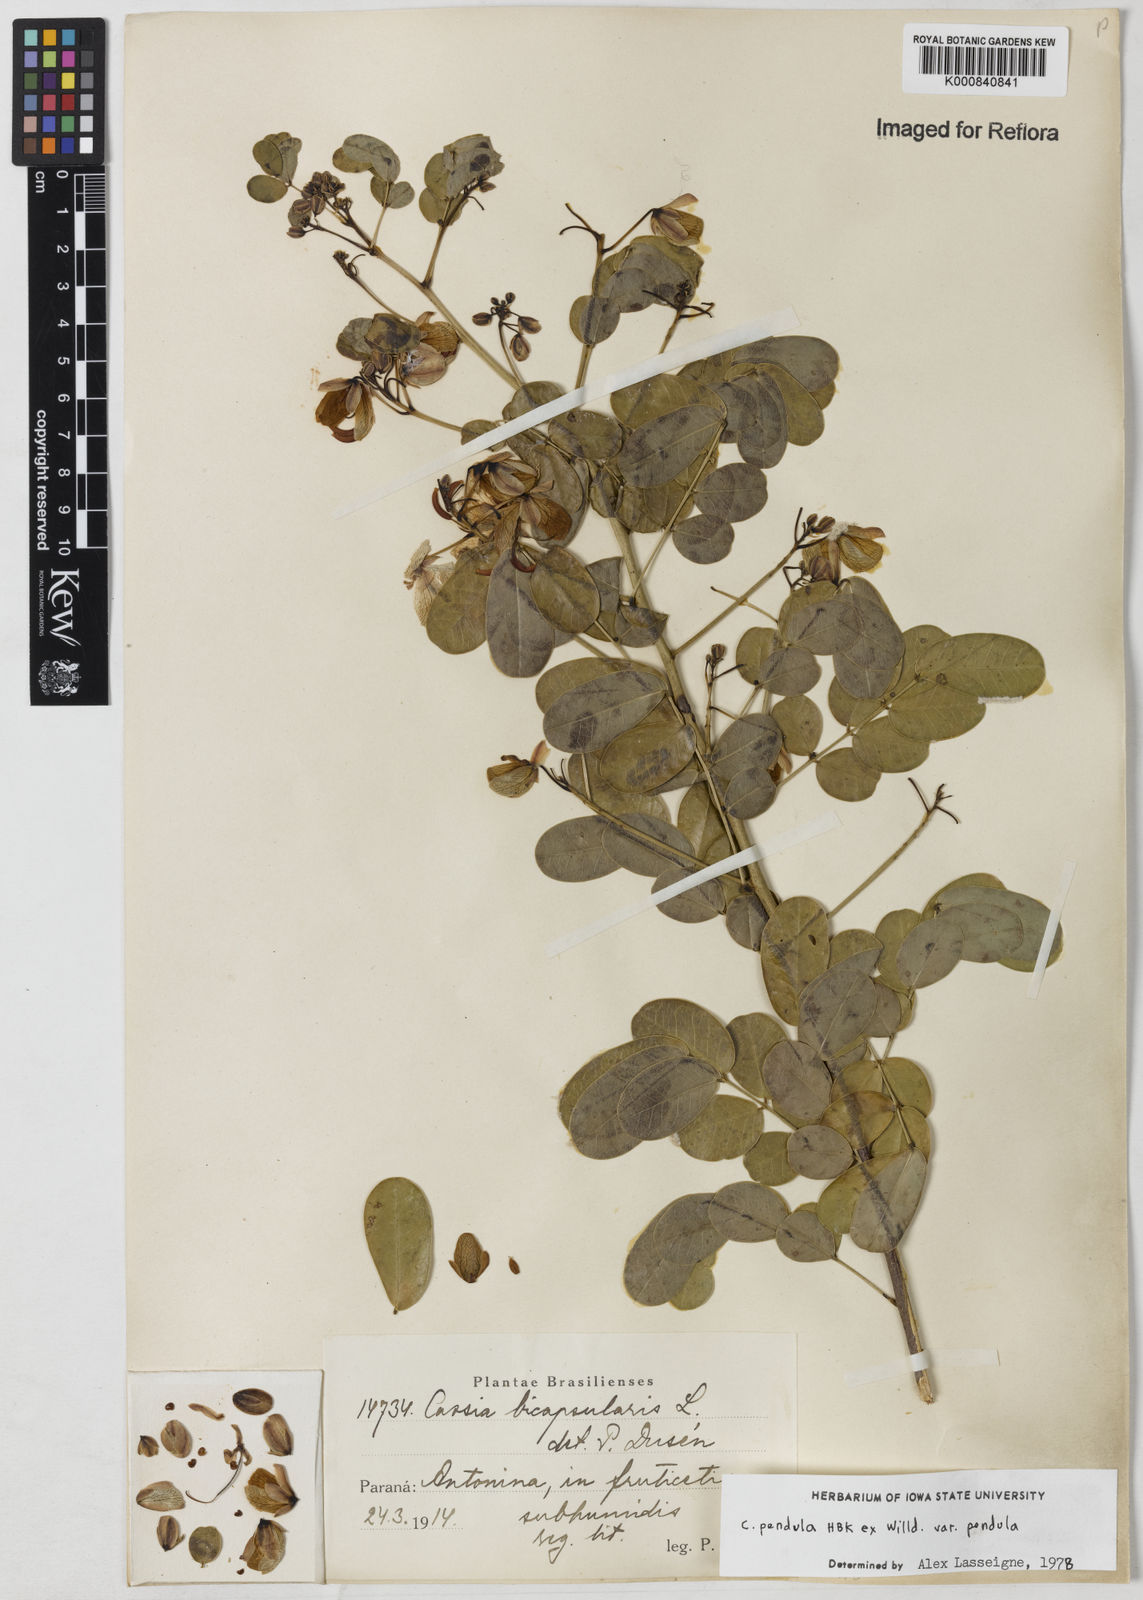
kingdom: Plantae
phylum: Tracheophyta
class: Magnoliopsida
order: Fabales
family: Fabaceae
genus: Senna
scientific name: Senna pendula
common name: Easter cassia
